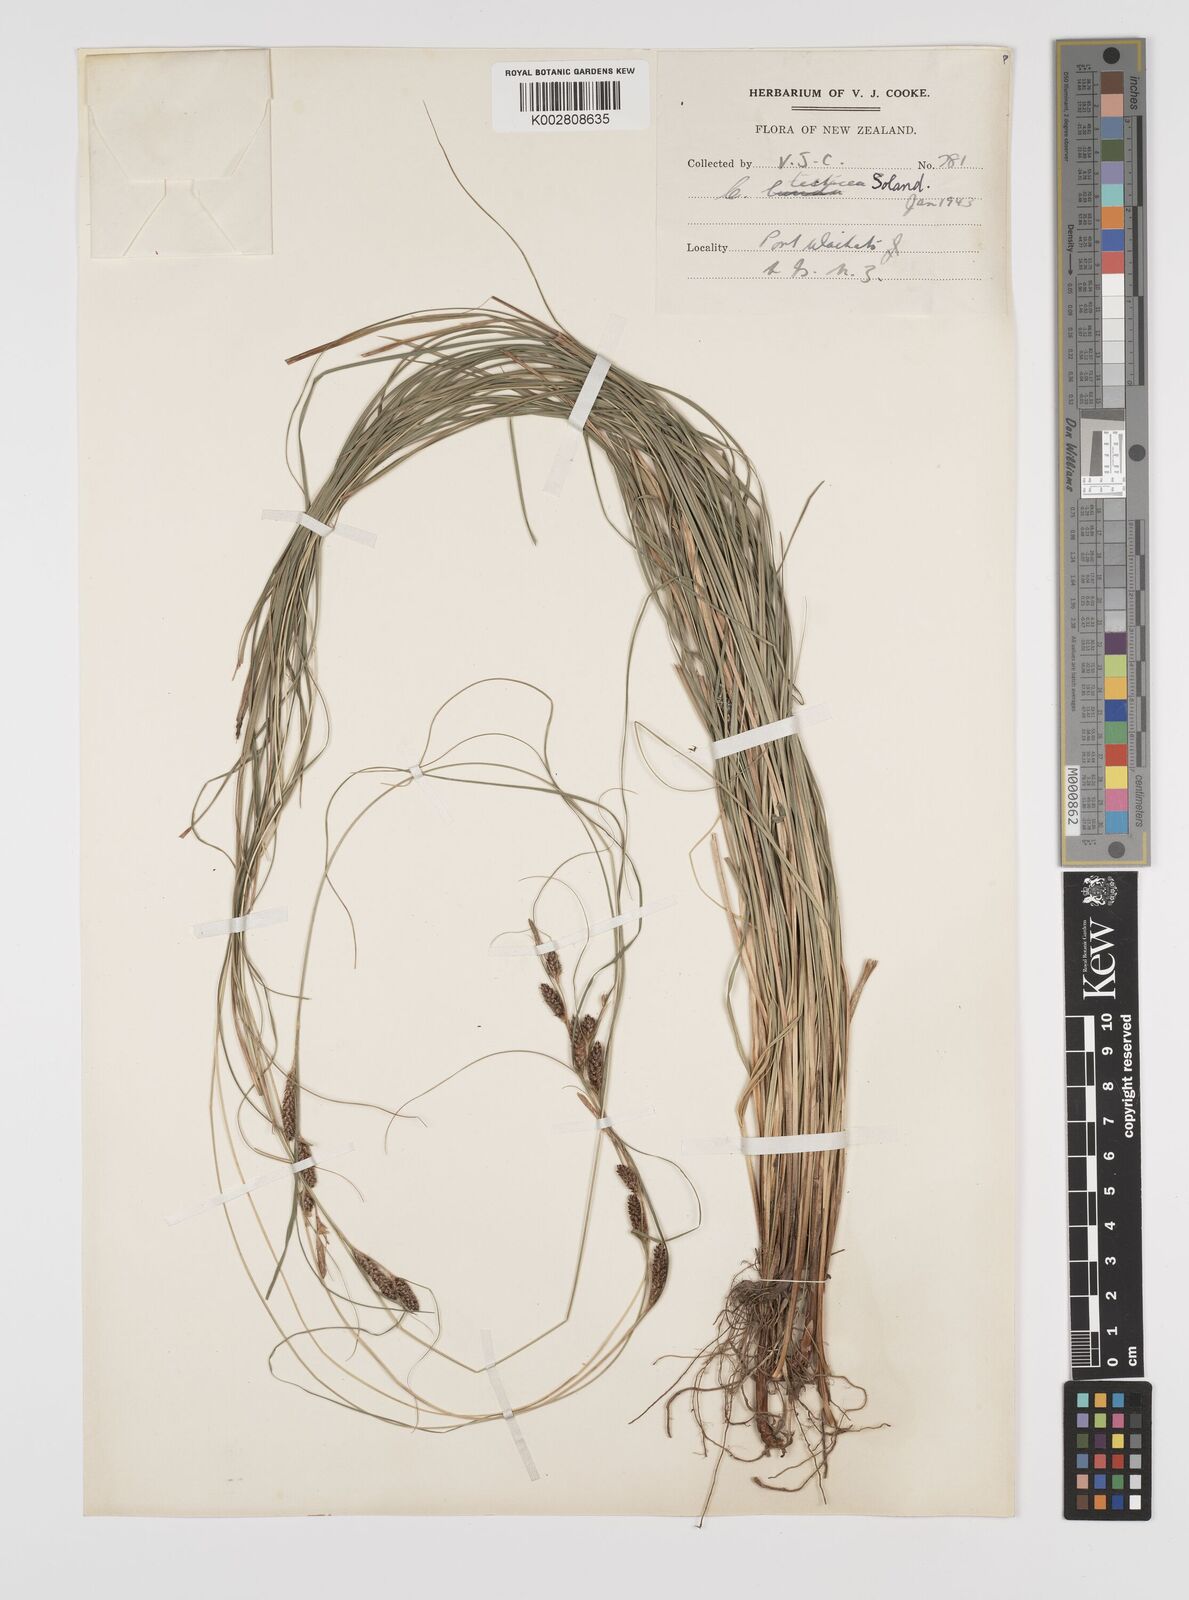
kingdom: Plantae
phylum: Tracheophyta
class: Liliopsida
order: Poales
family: Cyperaceae
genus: Carex
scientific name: Carex testacea
